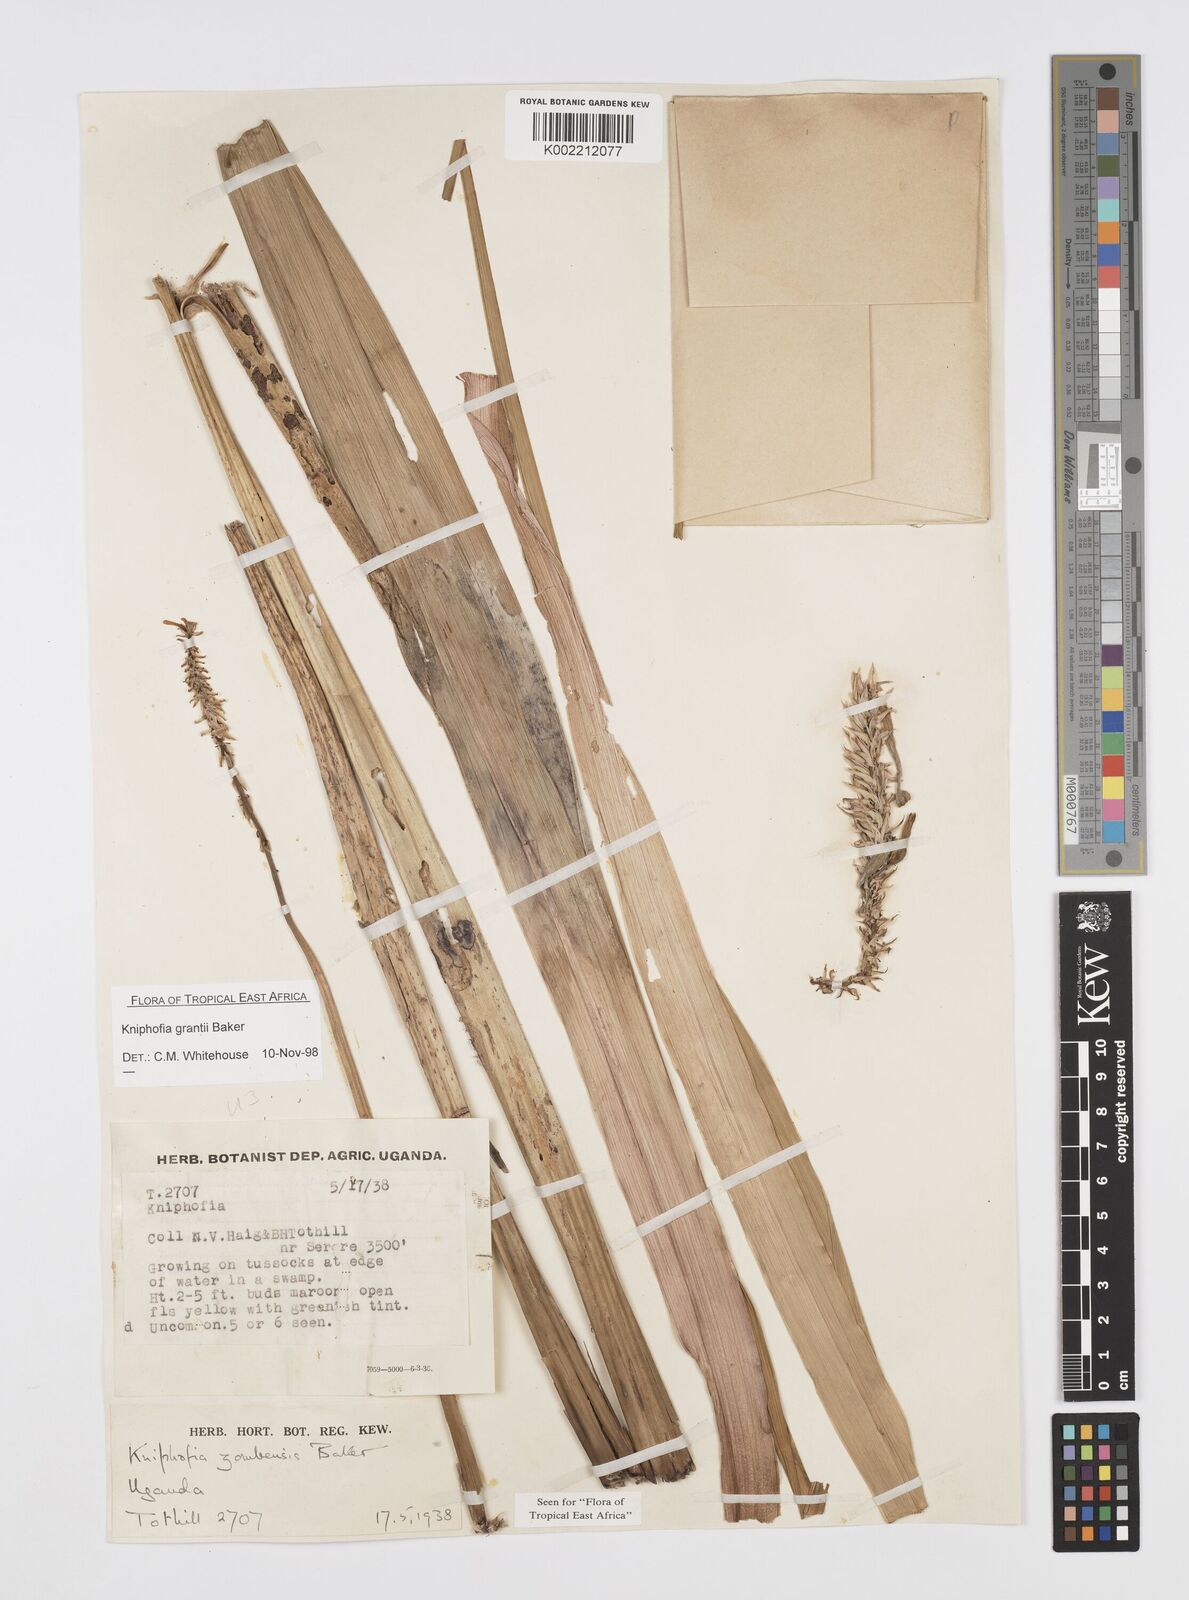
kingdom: Plantae
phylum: Tracheophyta
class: Liliopsida
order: Asparagales
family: Asphodelaceae
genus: Kniphofia
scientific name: Kniphofia grantii
